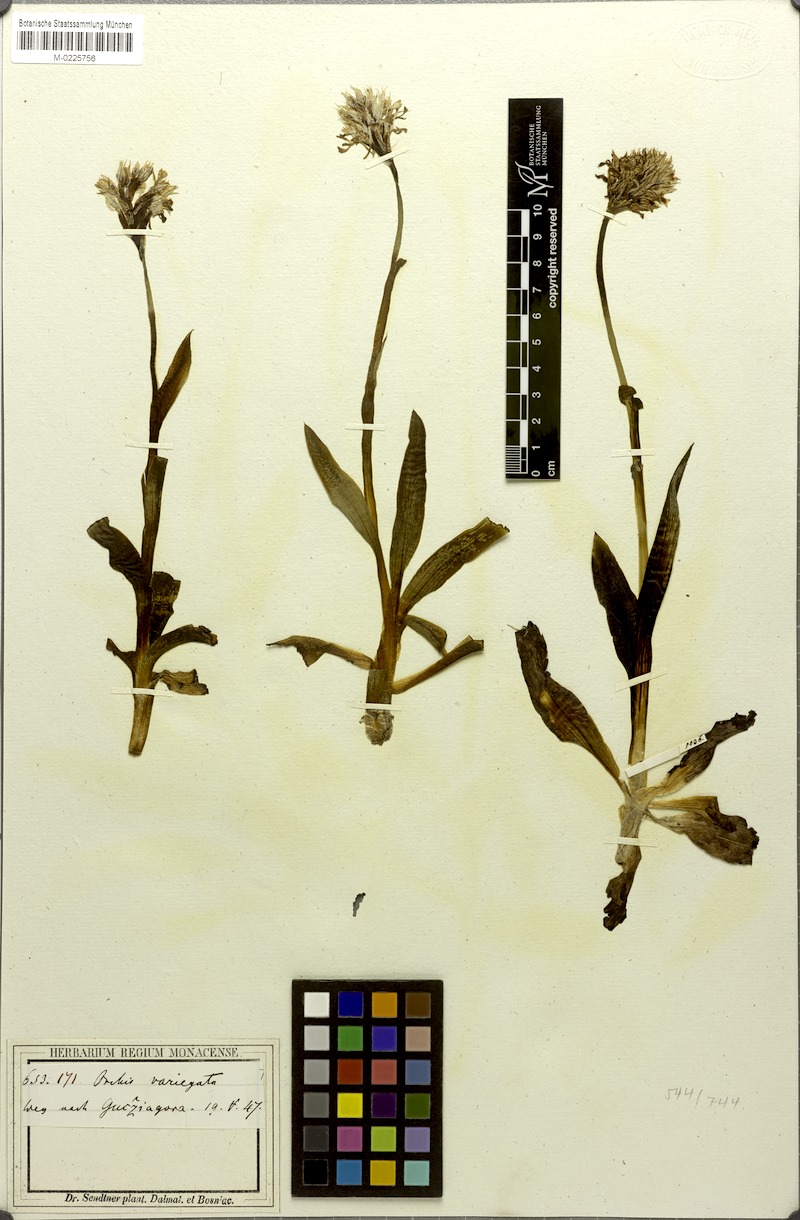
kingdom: Plantae
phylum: Tracheophyta
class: Liliopsida
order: Asparagales
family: Orchidaceae
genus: Neotinea
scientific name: Neotinea tridentata
